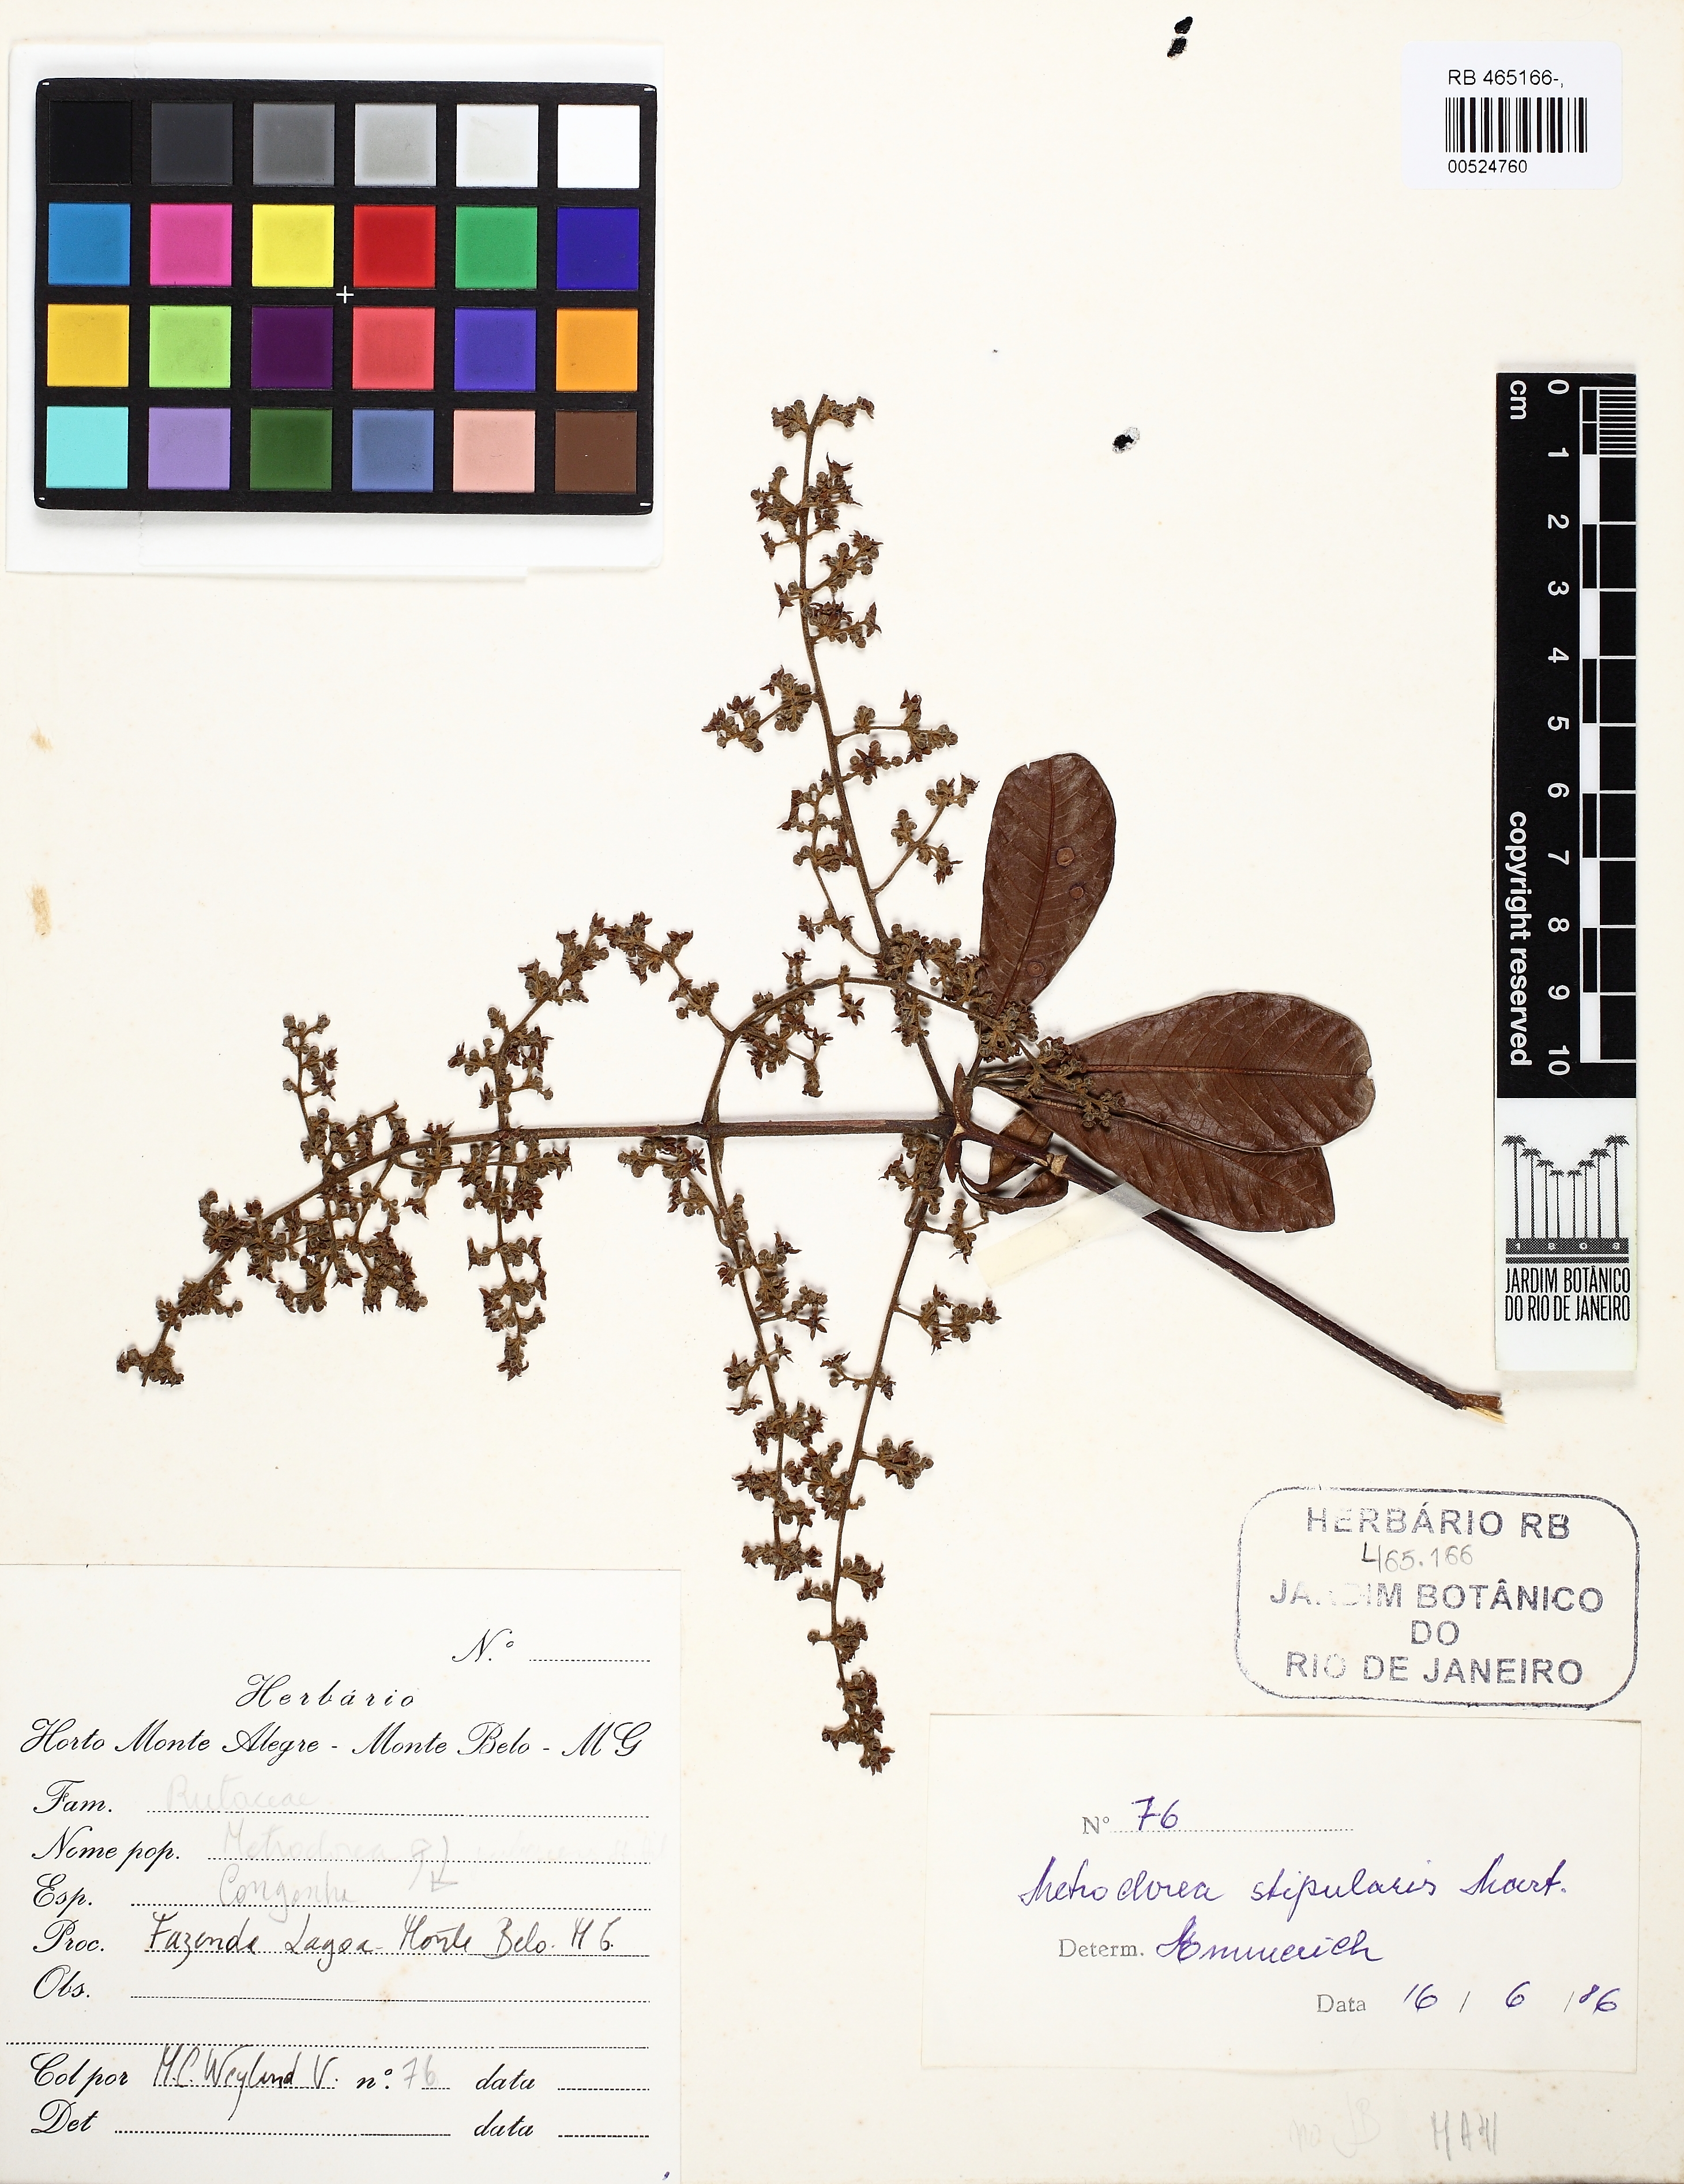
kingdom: Plantae
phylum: Tracheophyta
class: Magnoliopsida
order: Sapindales
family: Rutaceae
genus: Metrodorea
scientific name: Metrodorea stipularis
